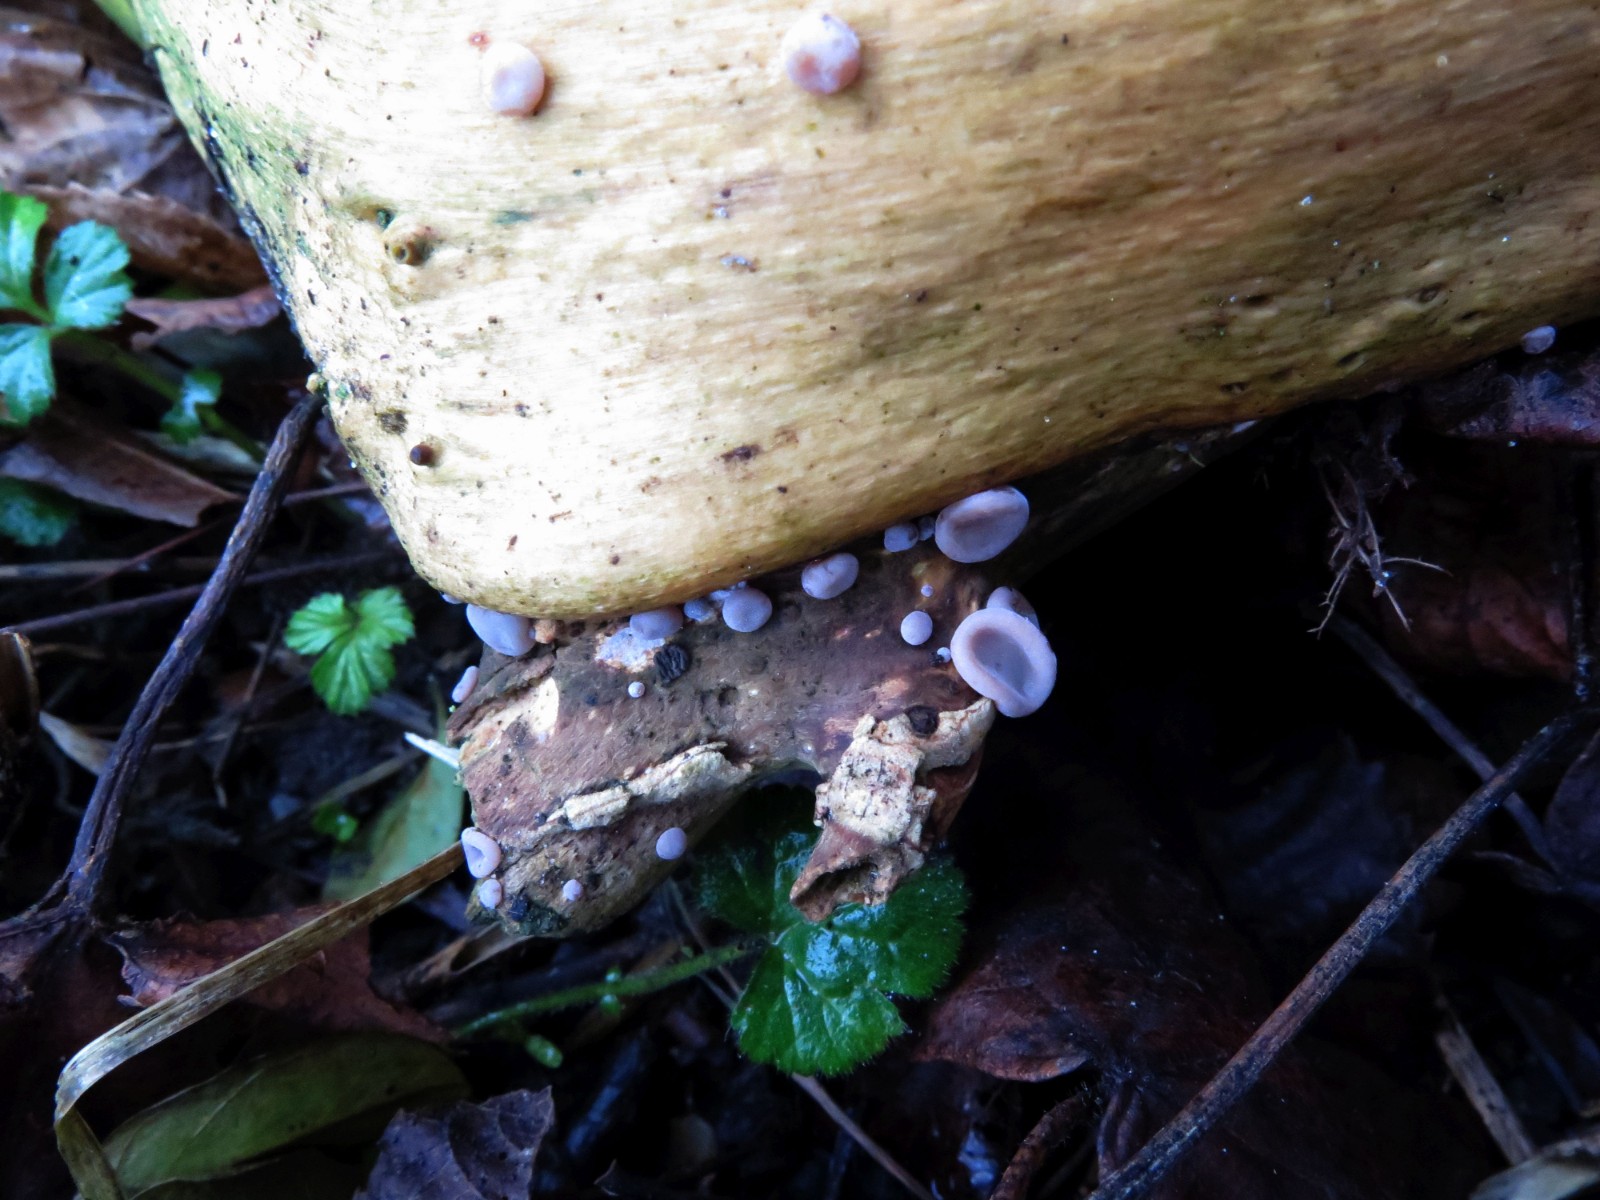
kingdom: Fungi
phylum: Basidiomycota
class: Agaricomycetes
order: Auriculariales
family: Auriculariaceae
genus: Auricularia
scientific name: Auricularia auricula-judae
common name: almindelig judasøre
